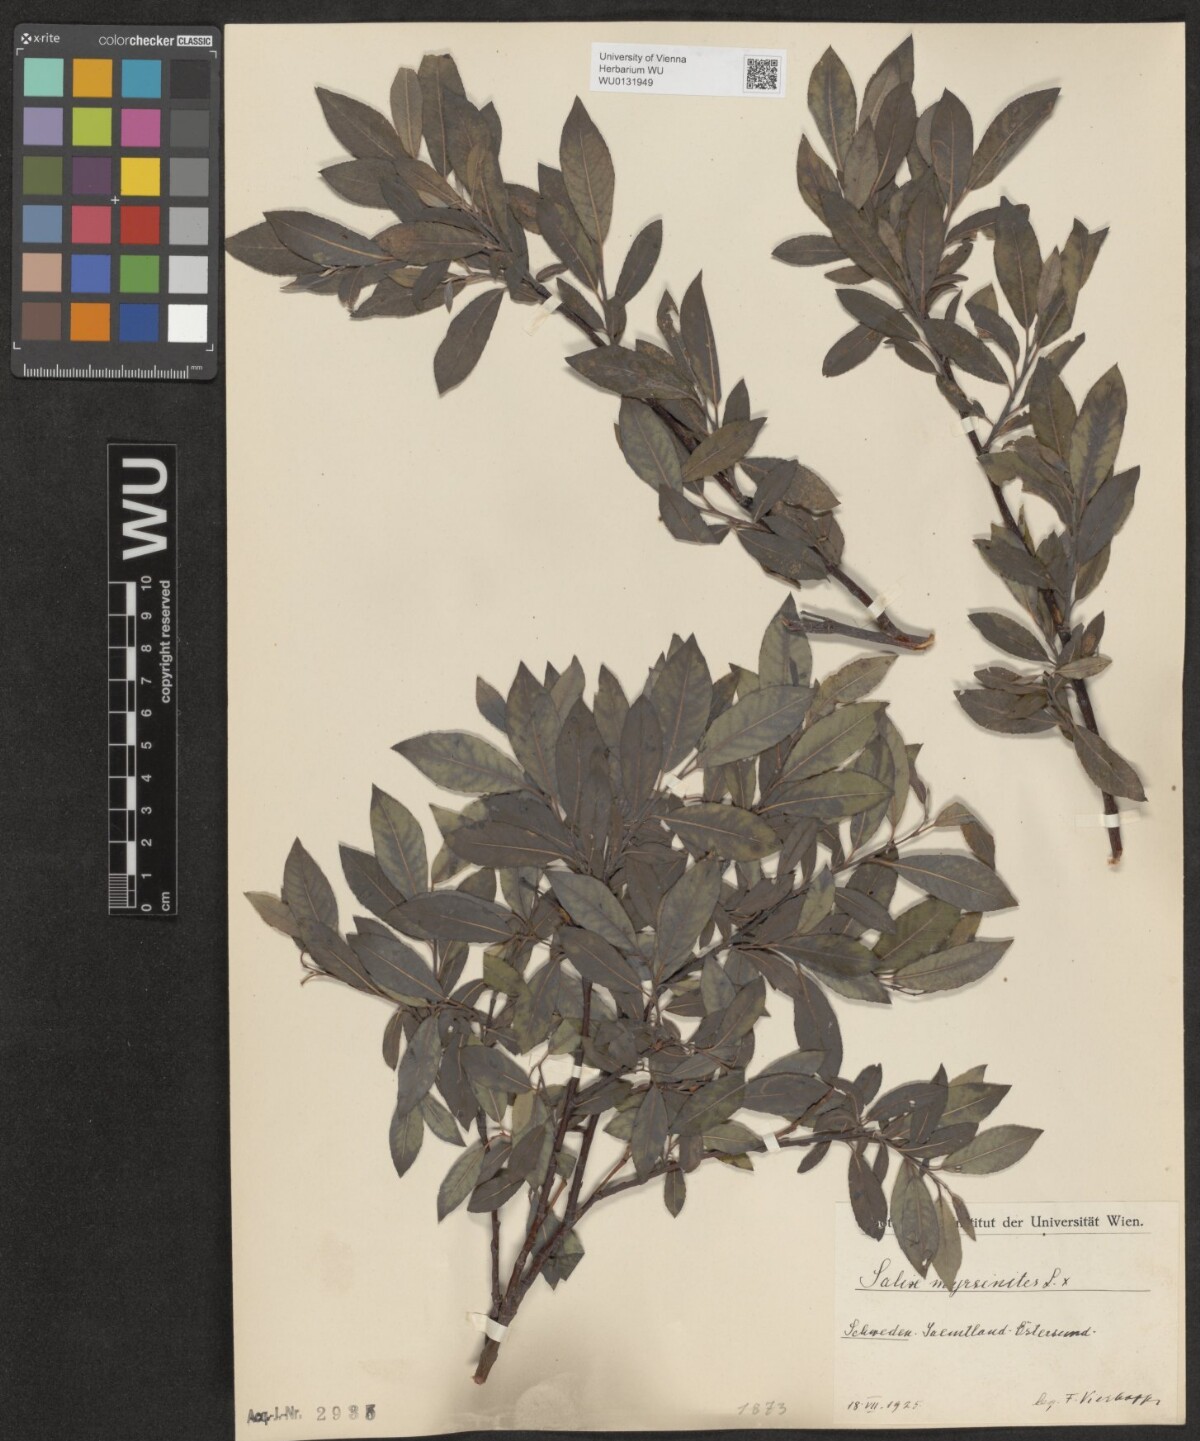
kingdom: Plantae
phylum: Tracheophyta
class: Magnoliopsida
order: Malpighiales
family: Salicaceae
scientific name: Salicaceae
